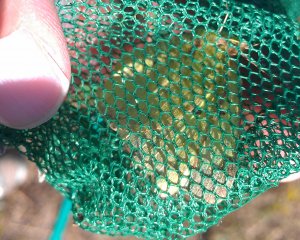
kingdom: Animalia
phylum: Arthropoda
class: Insecta
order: Lepidoptera
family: Pieridae
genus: Colias
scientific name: Colias philodice
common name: Clouded Sulphur
